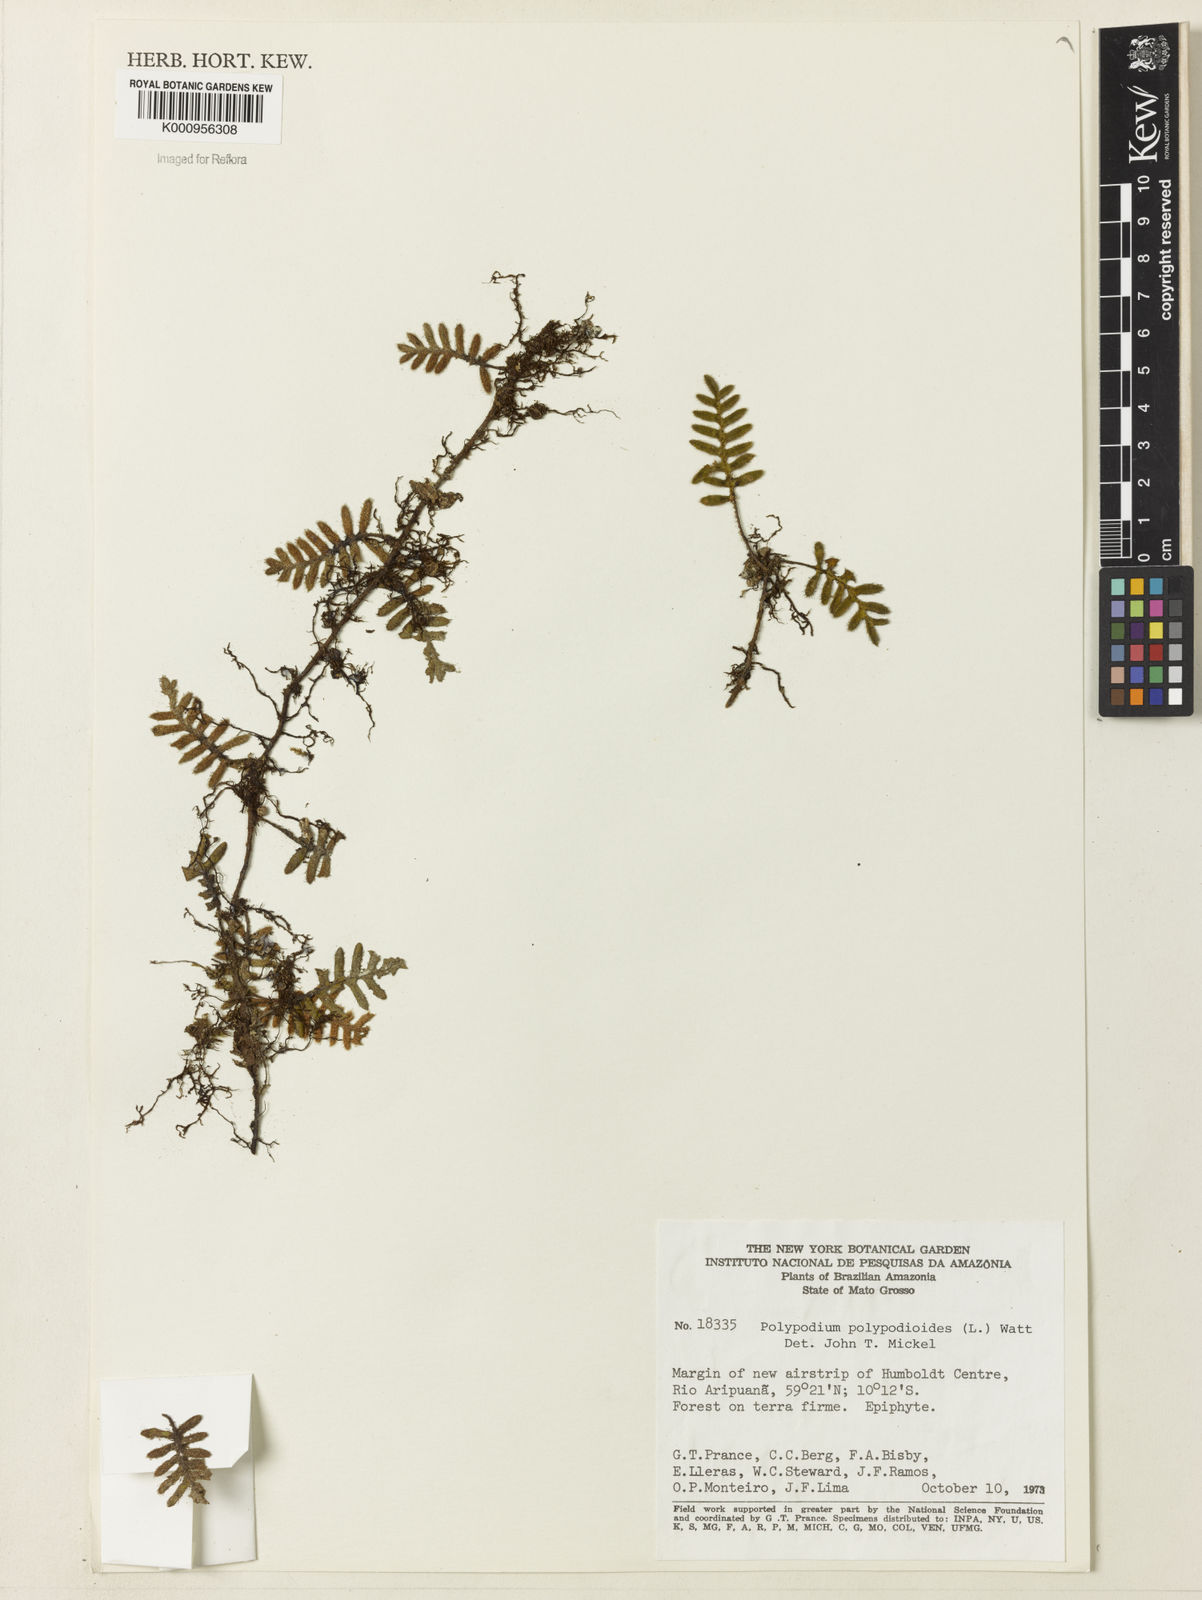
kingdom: Plantae
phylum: Tracheophyta
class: Polypodiopsida
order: Polypodiales
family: Polypodiaceae
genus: Pleopeltis
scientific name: Pleopeltis polypodioides
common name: Resurrection fern
